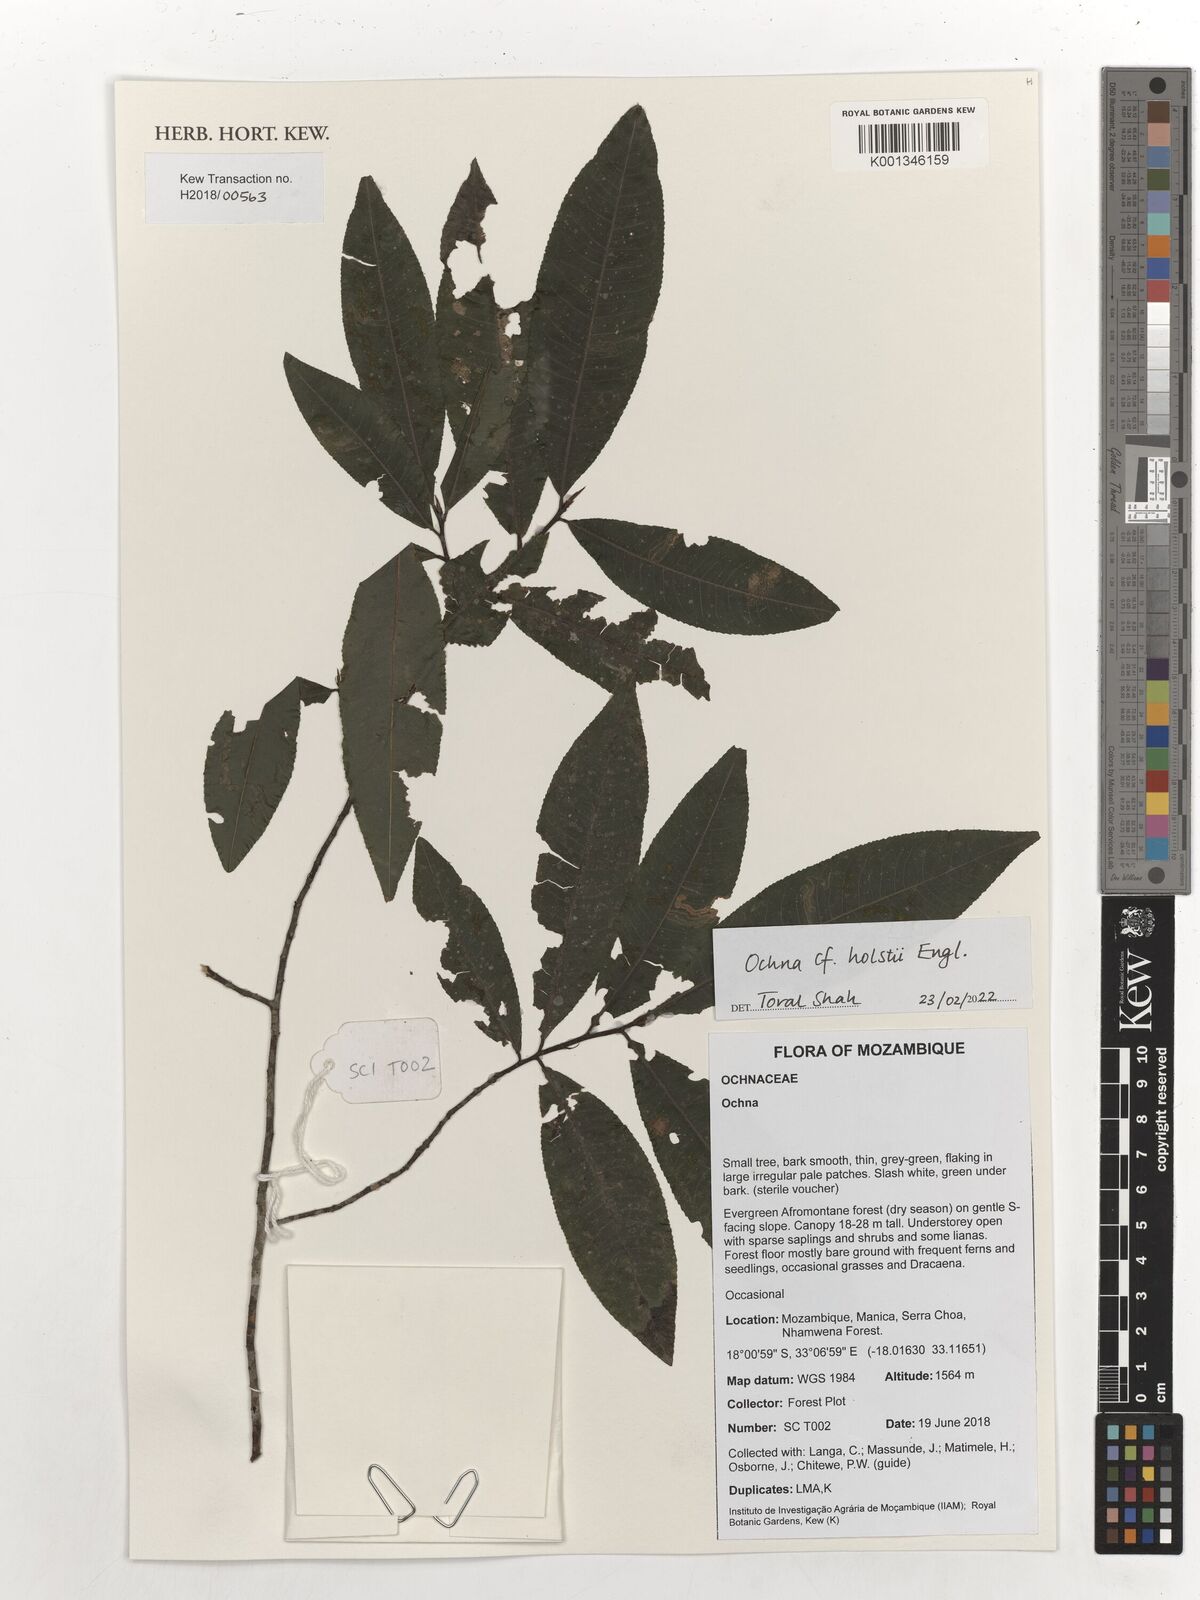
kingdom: Plantae
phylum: Tracheophyta
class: Magnoliopsida
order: Malpighiales
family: Ochnaceae
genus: Ochna
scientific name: Ochna holstii
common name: Red ironwood
